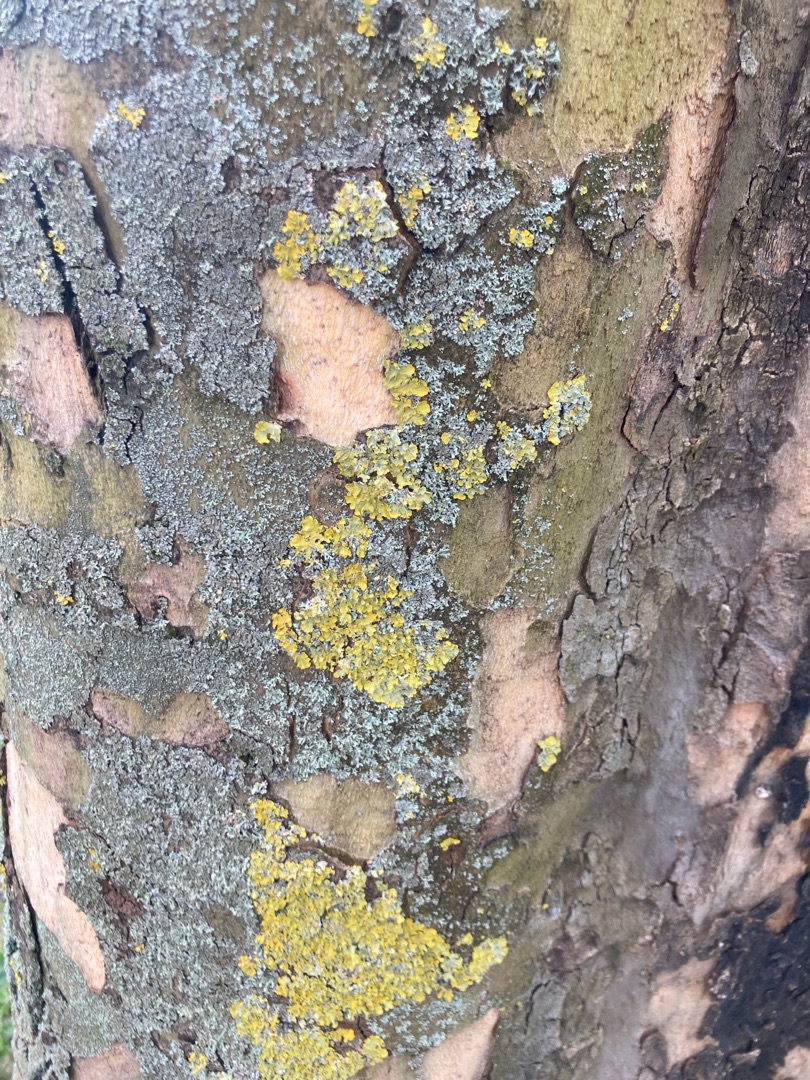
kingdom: Fungi
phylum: Ascomycota
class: Lecanoromycetes
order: Teloschistales
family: Teloschistaceae
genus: Xanthoria
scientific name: Xanthoria parietina
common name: Almindelig væggelav
